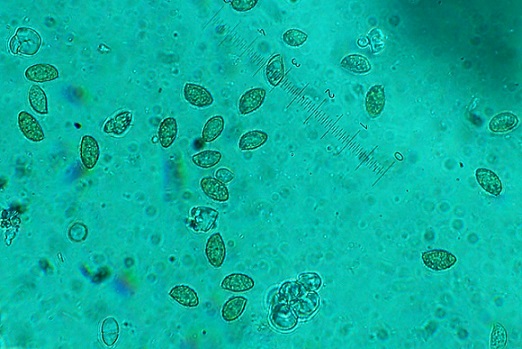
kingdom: Fungi
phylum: Basidiomycota
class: Agaricomycetes
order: Agaricales
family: Cortinariaceae
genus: Cortinarius
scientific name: Cortinarius
